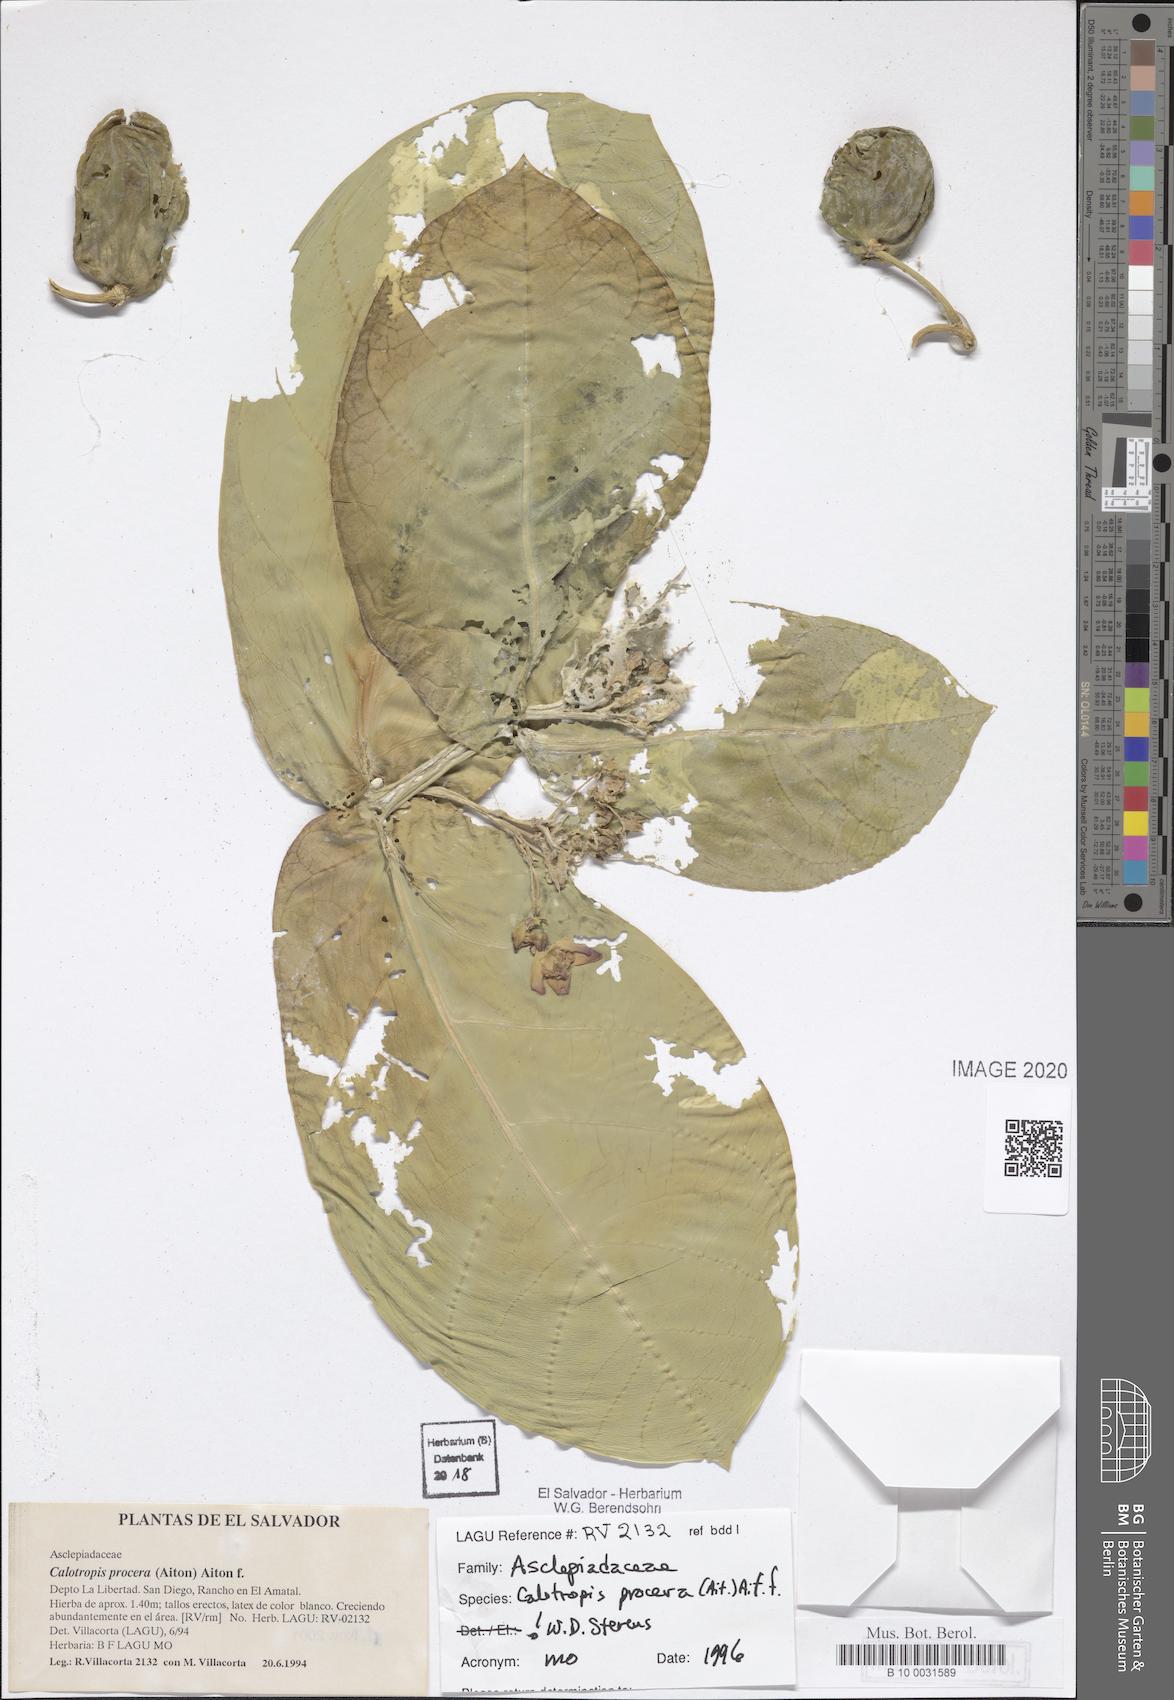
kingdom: Plantae
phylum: Tracheophyta
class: Magnoliopsida
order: Gentianales
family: Apocynaceae
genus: Calotropis
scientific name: Calotropis procera
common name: Roostertree
